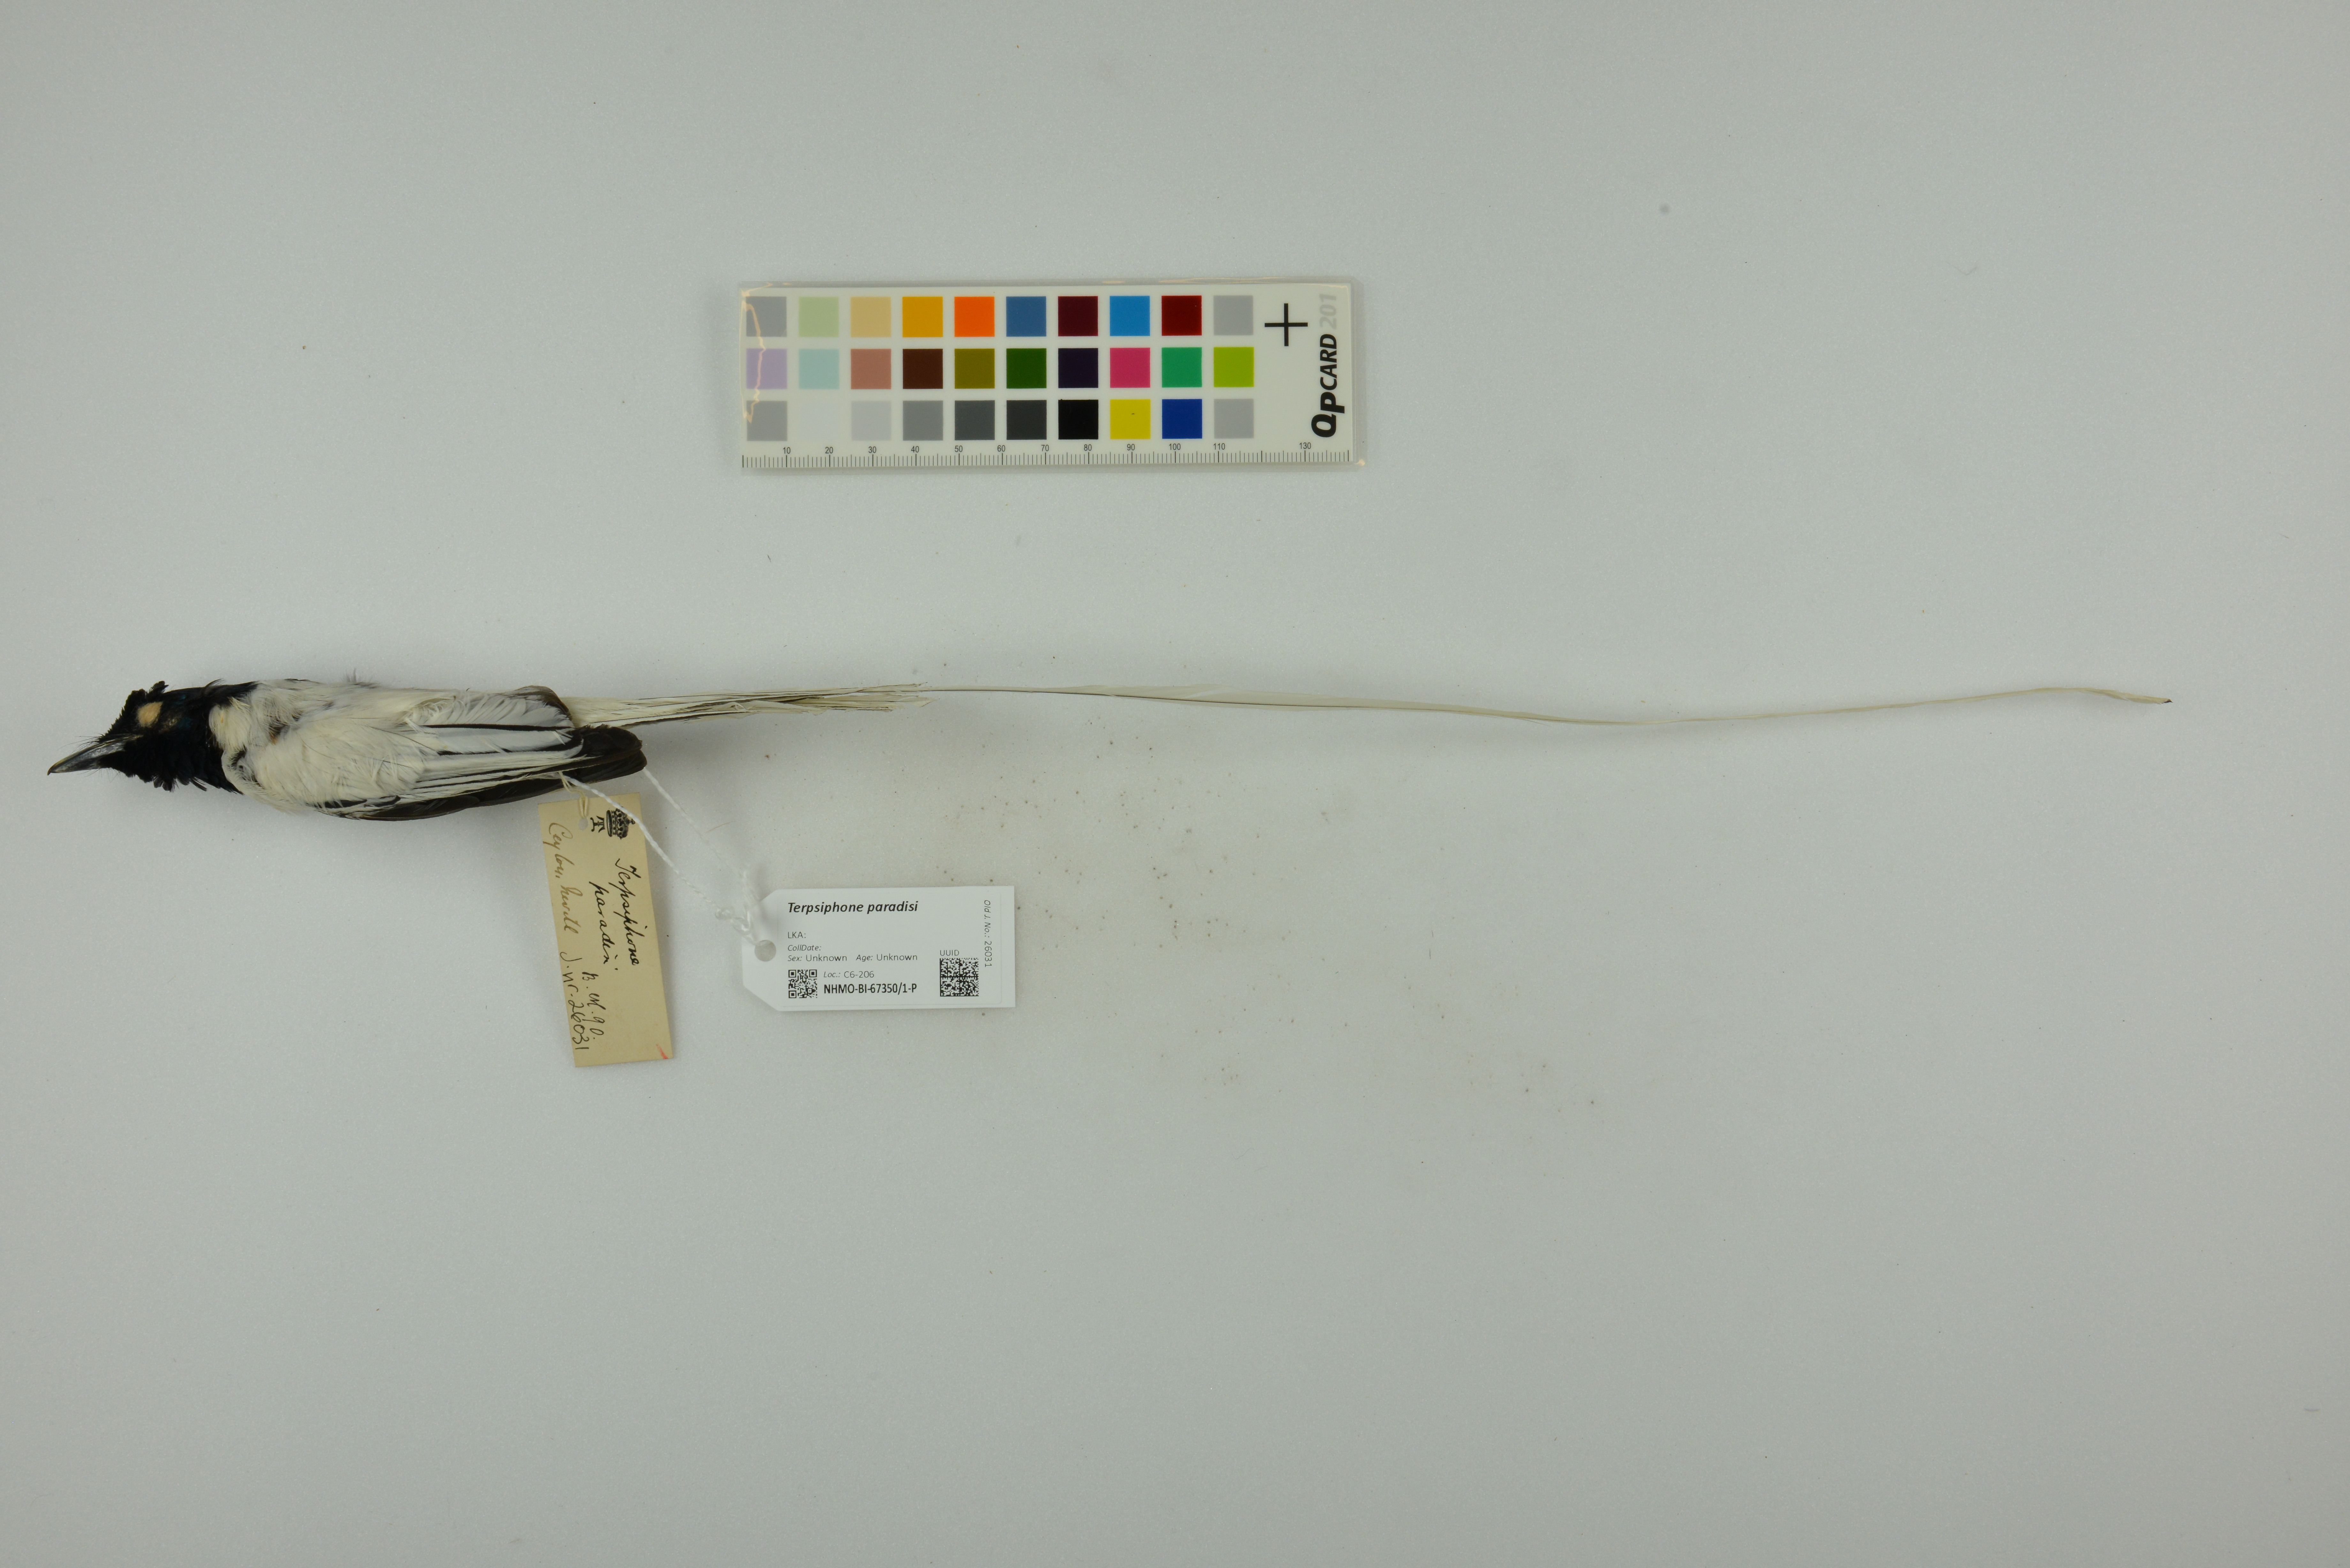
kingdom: Animalia
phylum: Chordata
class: Aves
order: Passeriformes
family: Monarchidae
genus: Terpsiphone
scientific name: Terpsiphone paradisi
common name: Indian paradise flycatcher
